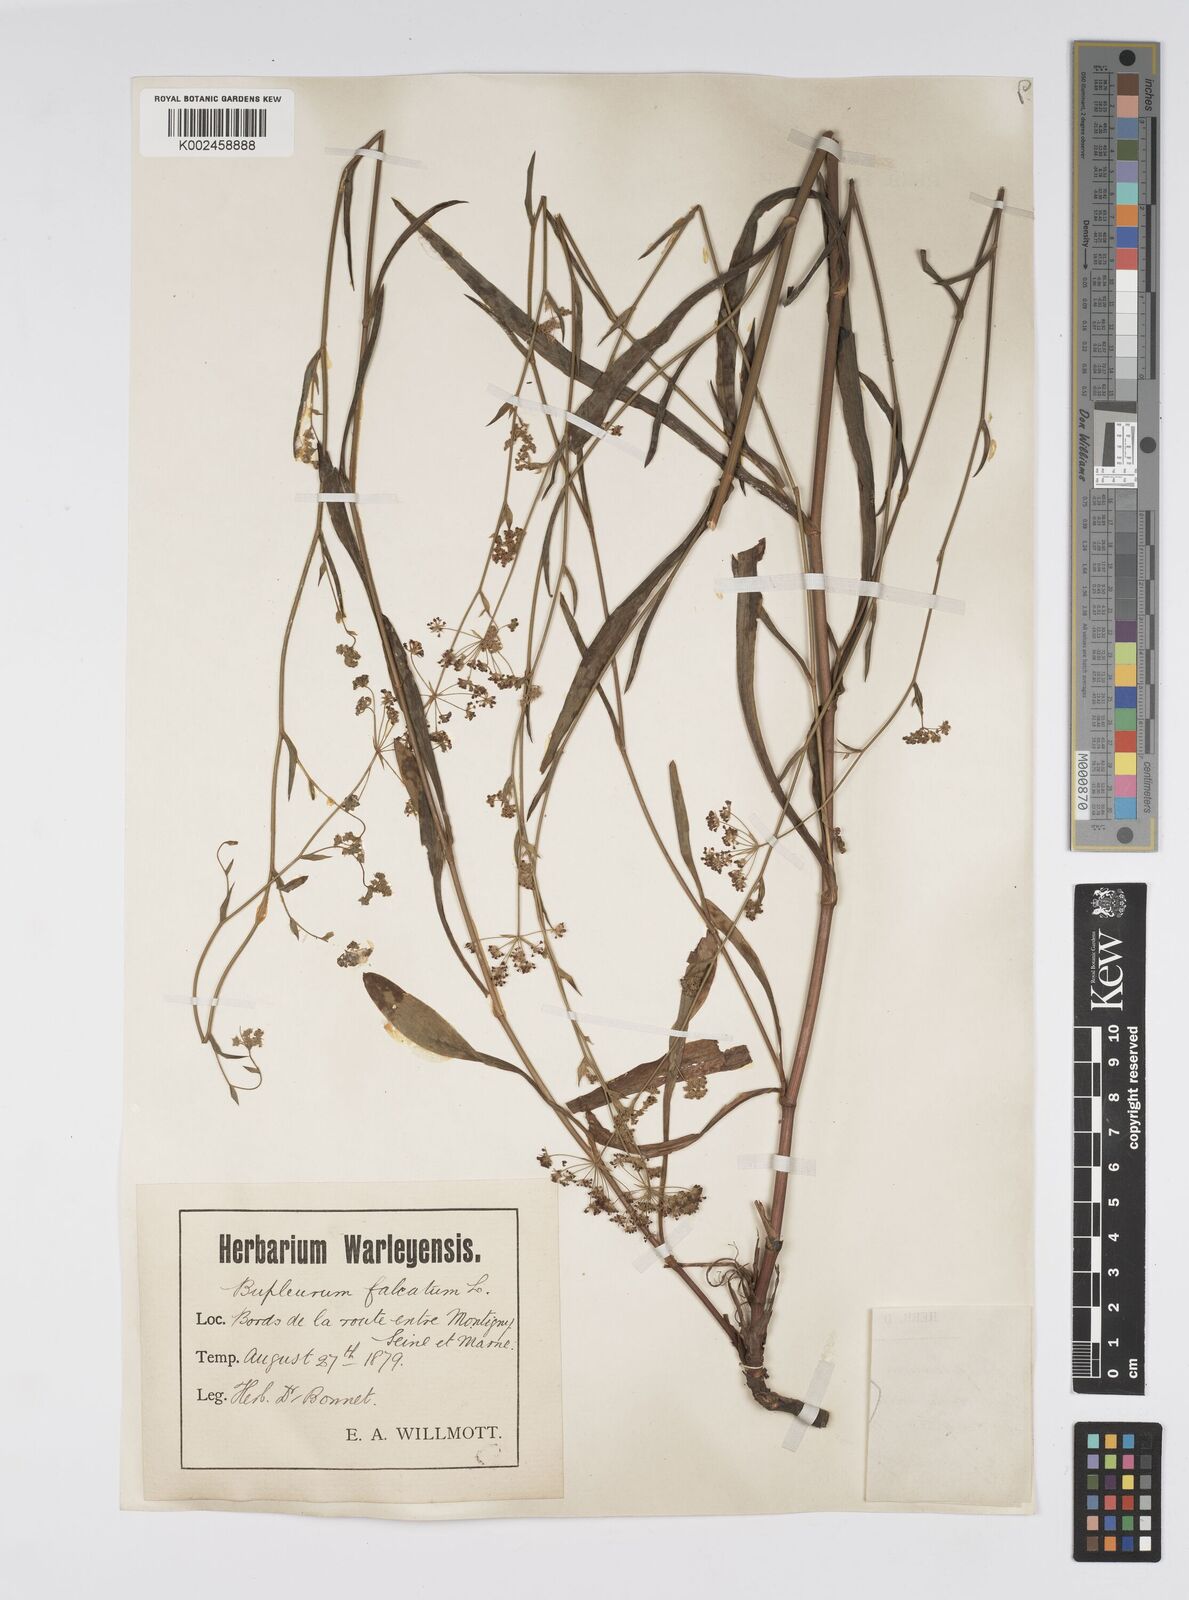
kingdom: Plantae
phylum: Tracheophyta
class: Magnoliopsida
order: Apiales
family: Apiaceae
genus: Bupleurum
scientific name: Bupleurum falcatum
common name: Sickle-leaved hare's-ear
